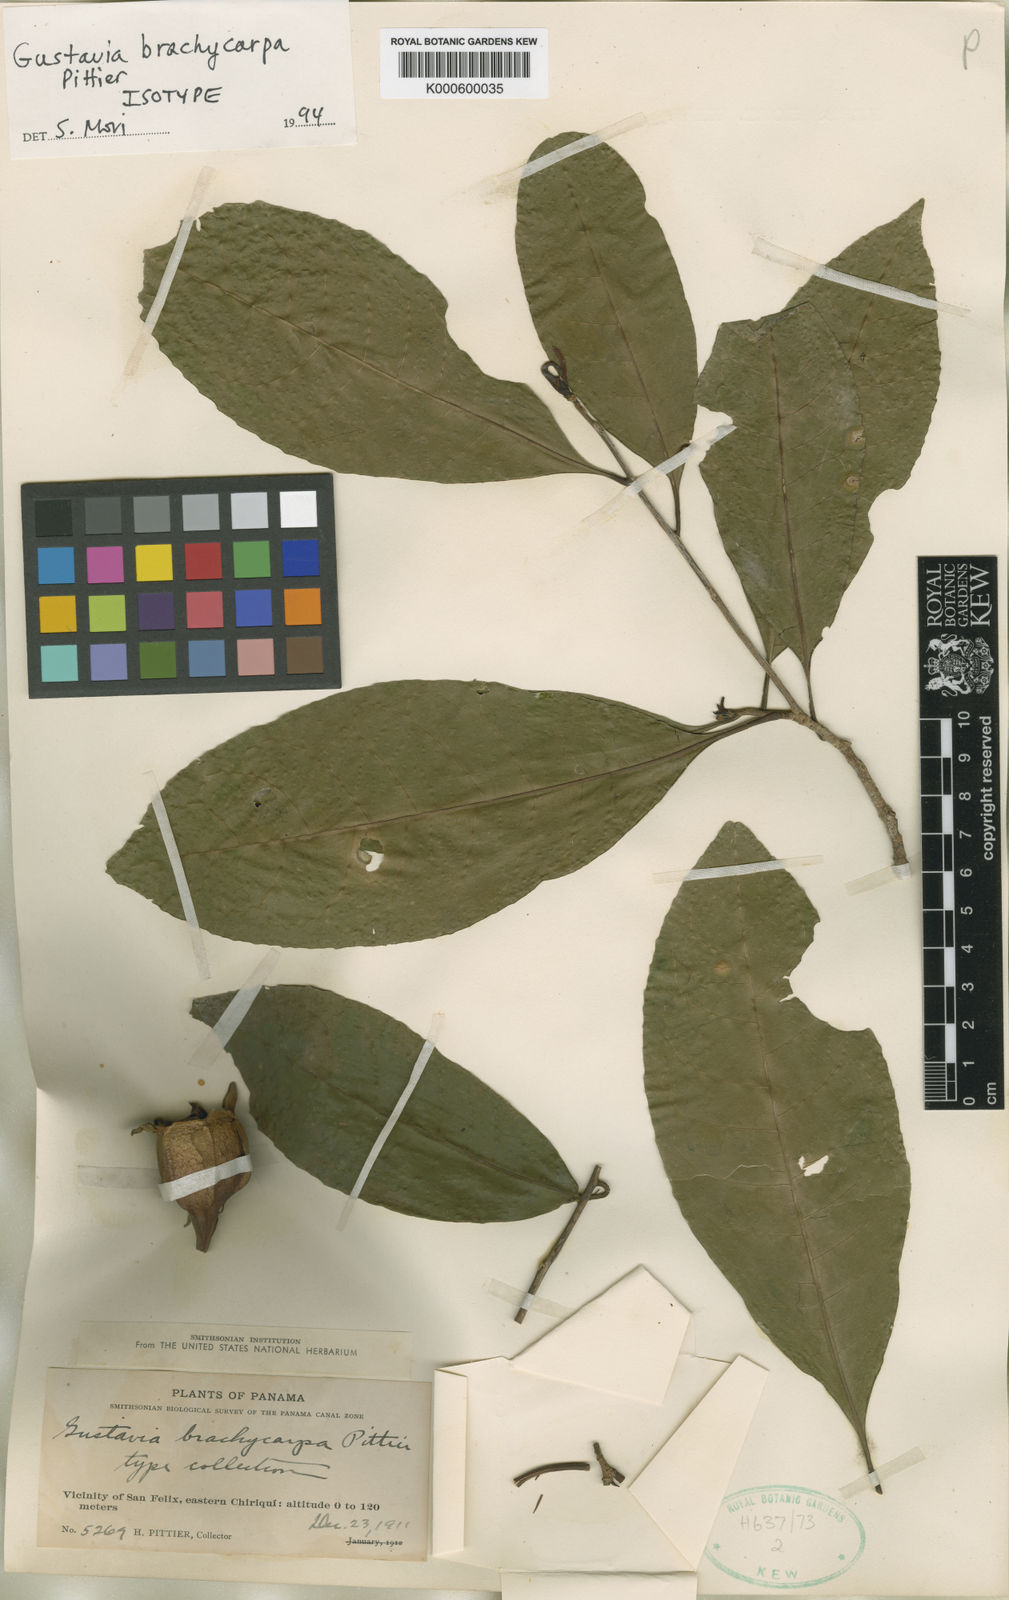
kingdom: Plantae
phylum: Tracheophyta
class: Magnoliopsida
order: Ericales
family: Lecythidaceae
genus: Gustavia
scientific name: Gustavia brachycarpa
